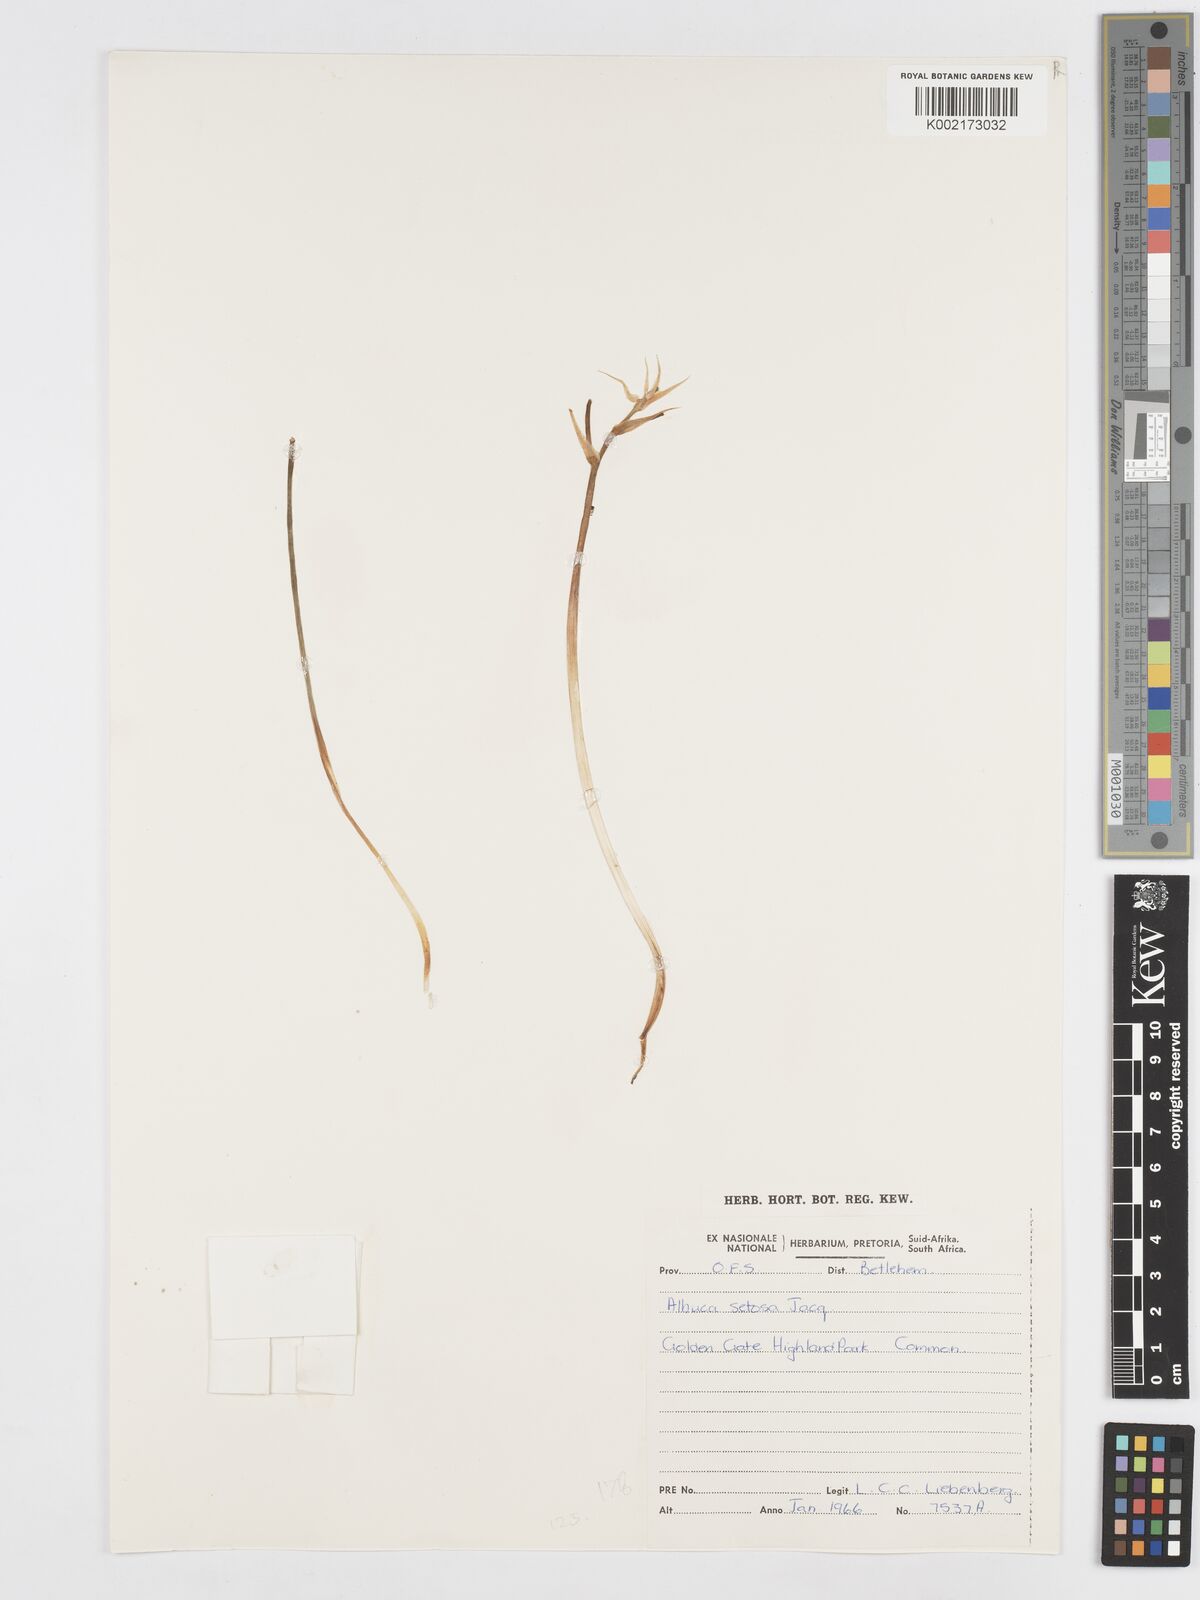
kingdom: Plantae
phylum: Tracheophyta
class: Liliopsida
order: Asparagales
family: Asparagaceae
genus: Albuca
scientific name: Albuca setosa
